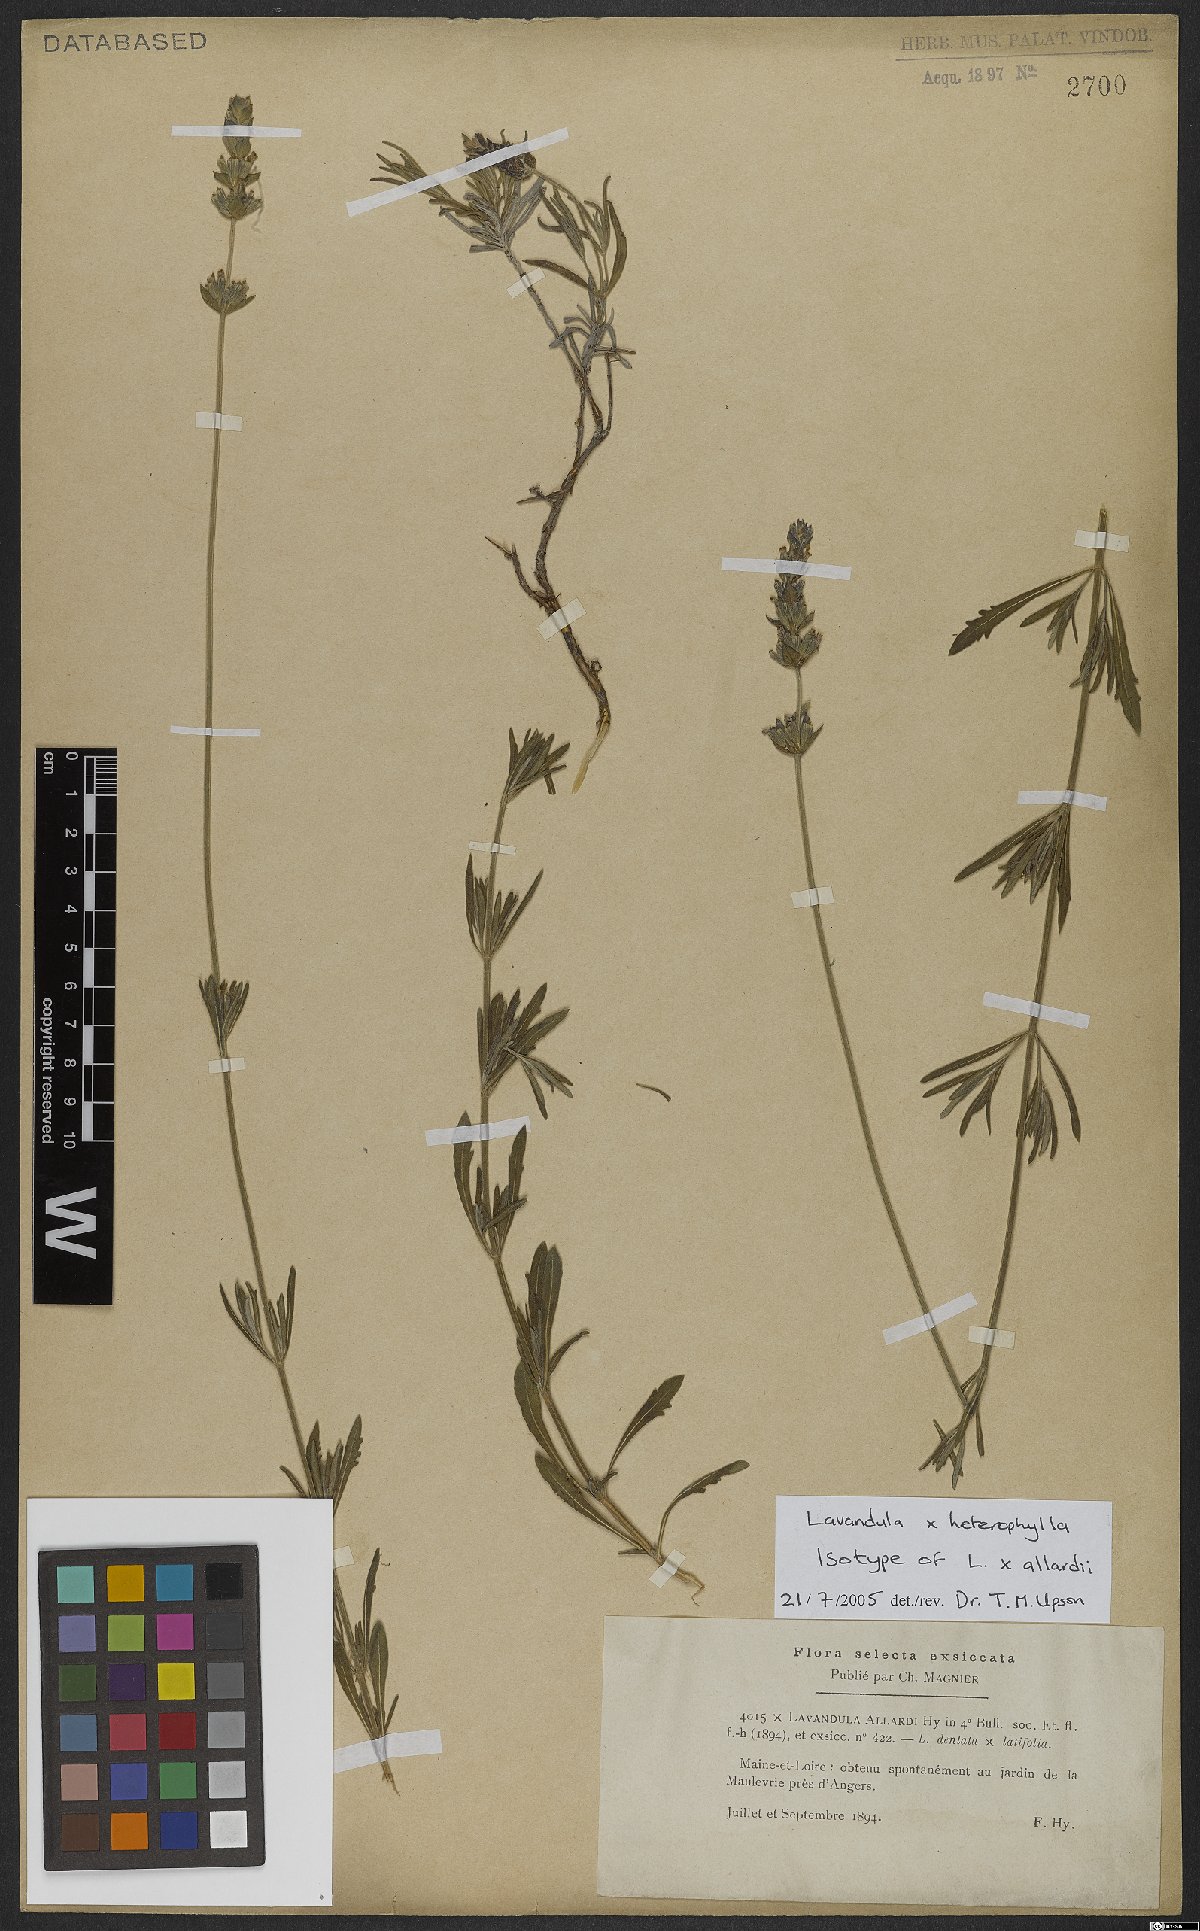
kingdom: Plantae
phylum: Tracheophyta
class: Magnoliopsida
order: Lamiales
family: Lamiaceae
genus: Lavandula
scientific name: Lavandula heterophylla
